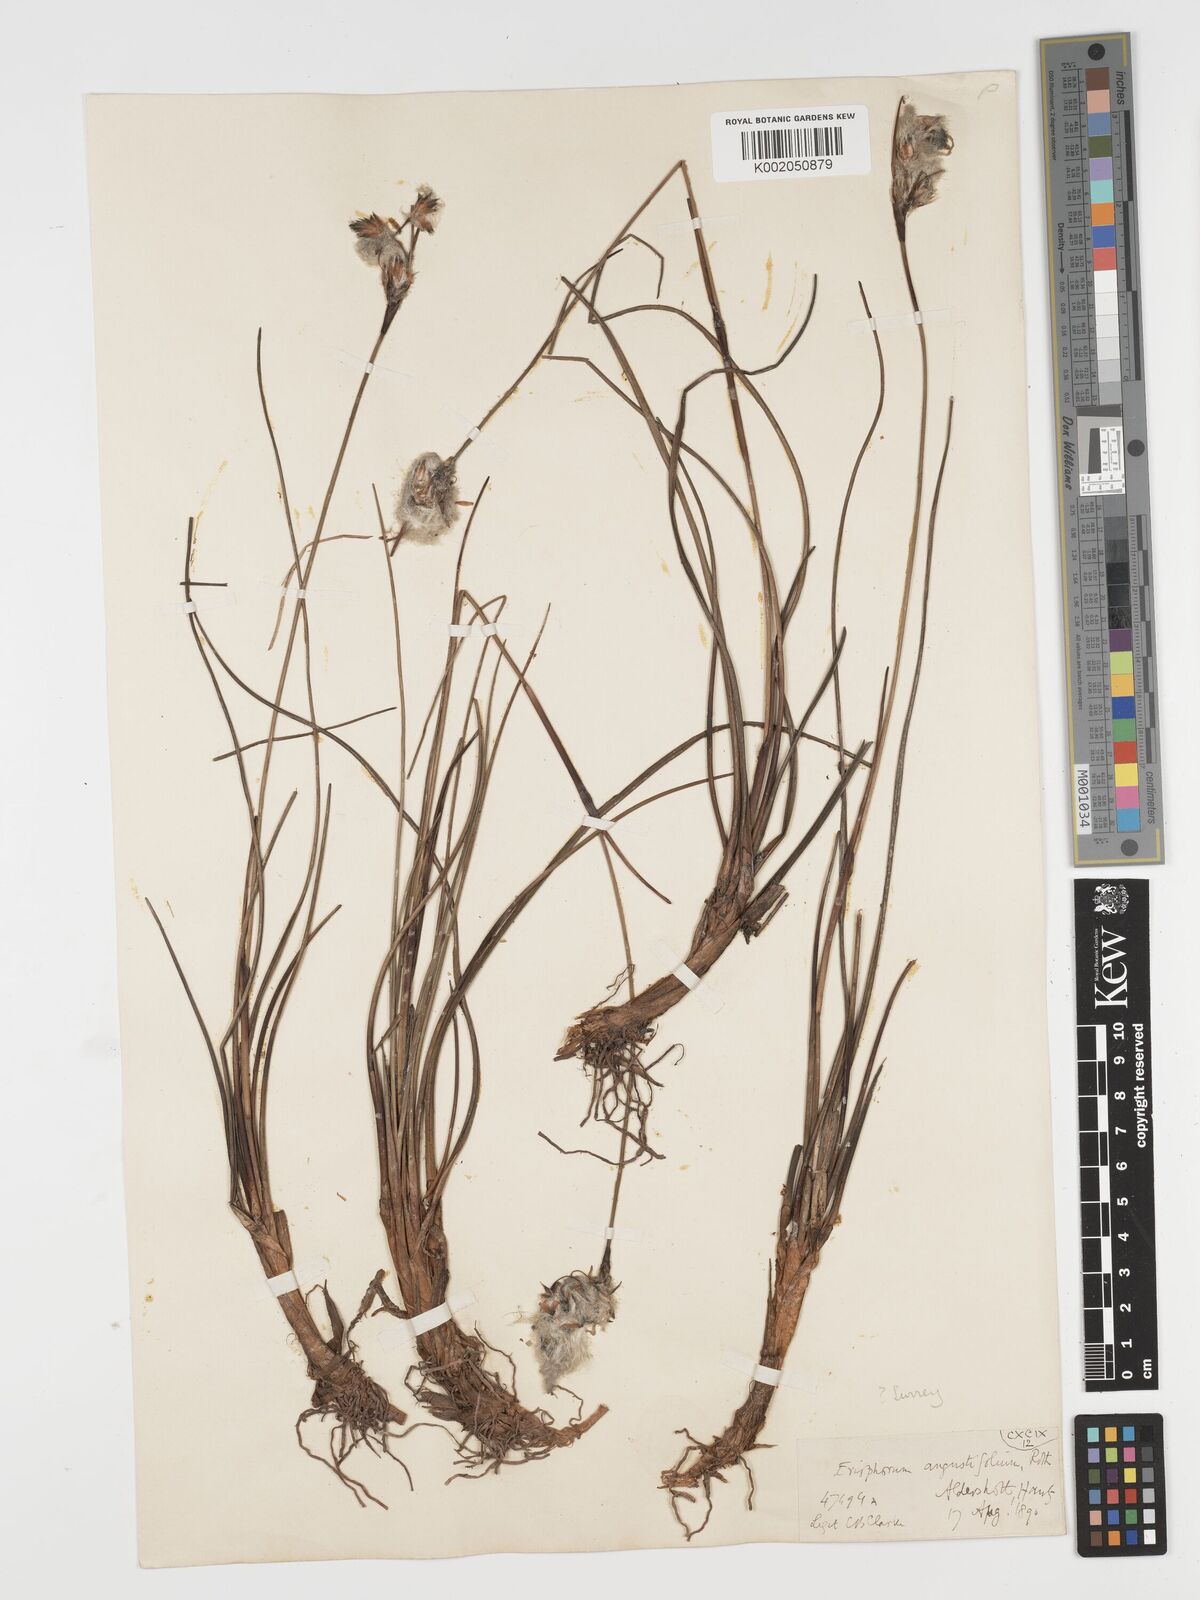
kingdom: Plantae
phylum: Tracheophyta
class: Liliopsida
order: Poales
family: Cyperaceae
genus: Eriophorum
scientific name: Eriophorum angustifolium
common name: Common cottongrass
